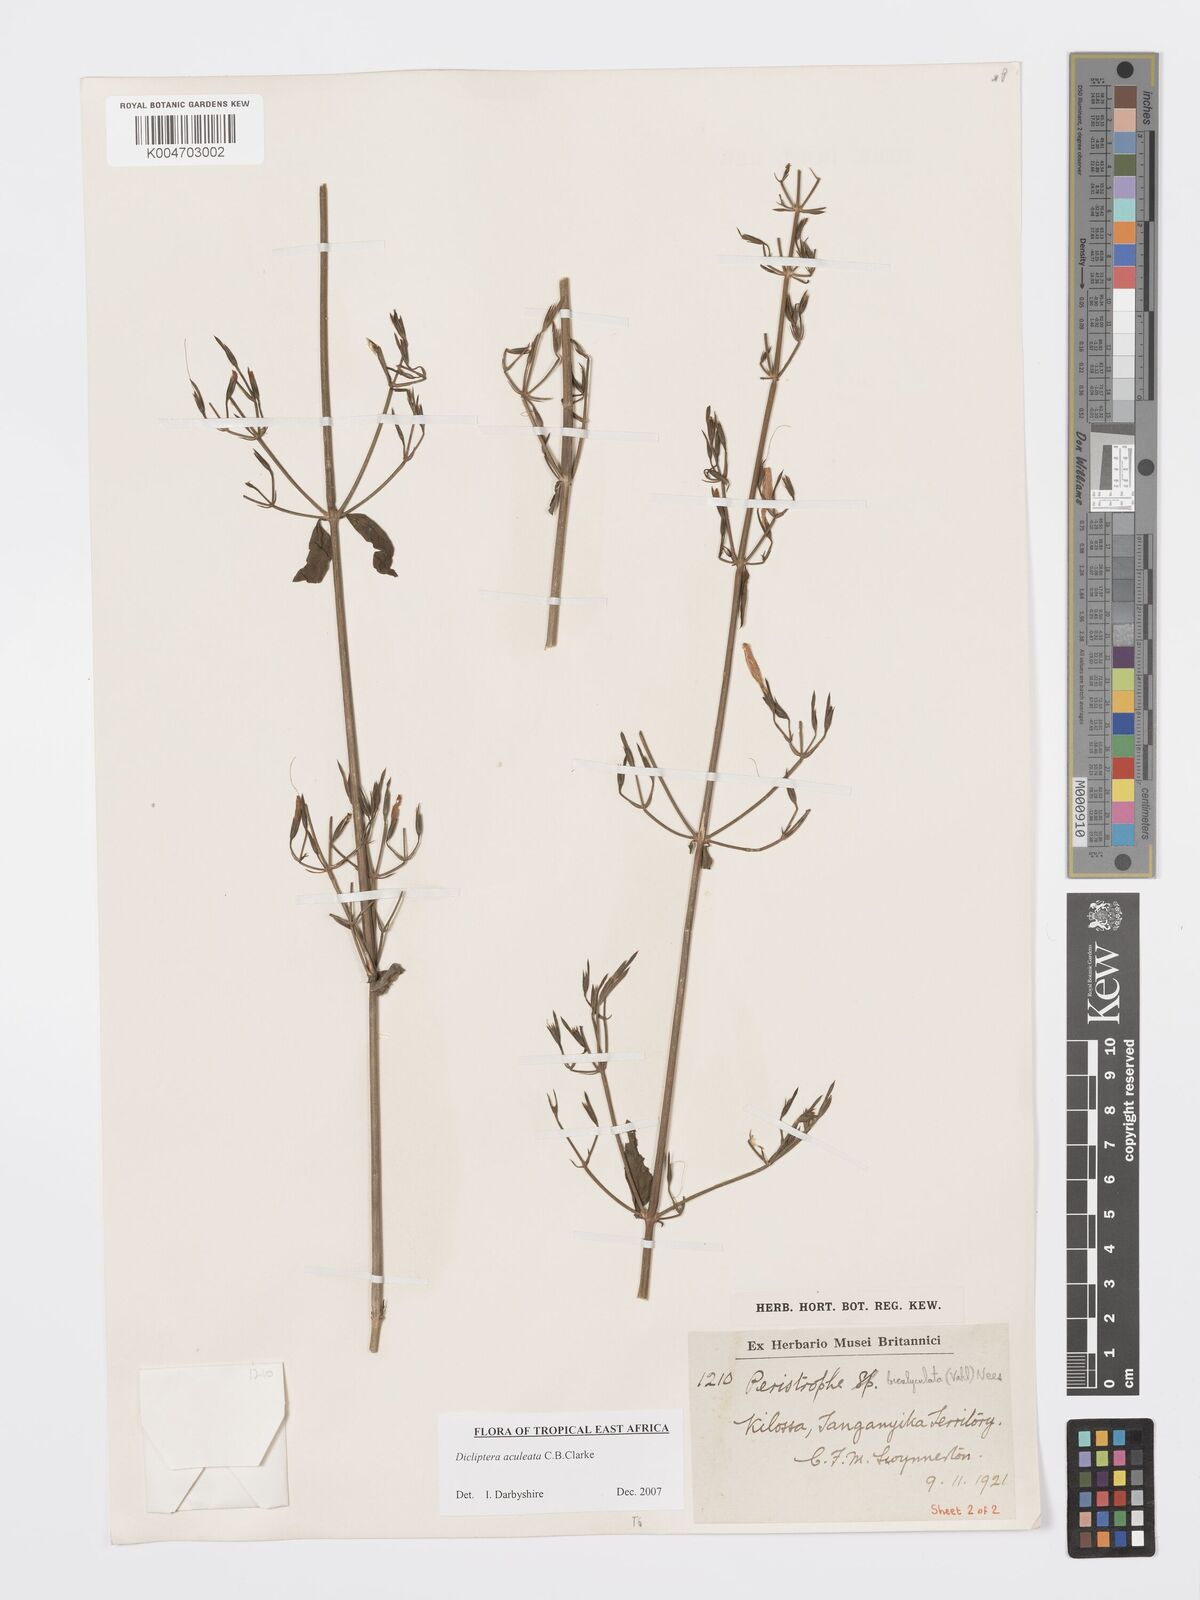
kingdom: Plantae
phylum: Tracheophyta
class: Magnoliopsida
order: Lamiales
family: Acanthaceae
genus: Dicliptera
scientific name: Dicliptera hensii
